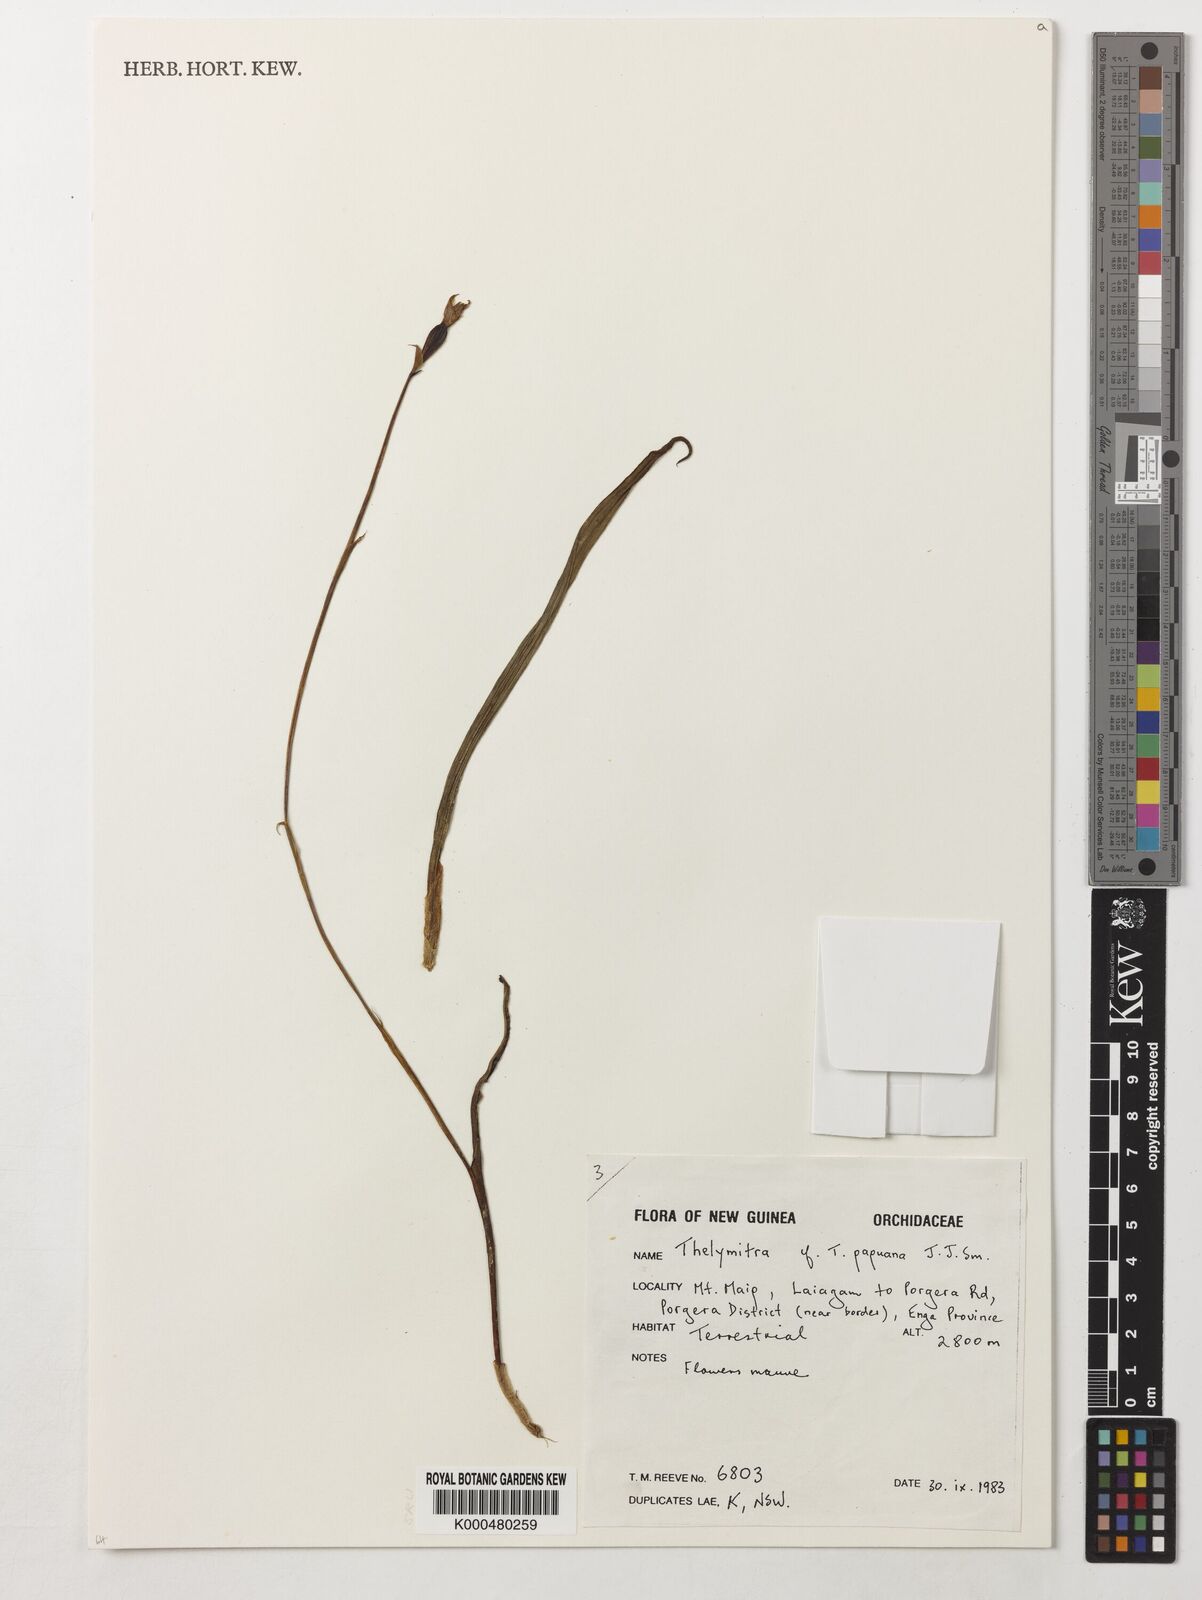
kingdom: Plantae
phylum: Tracheophyta
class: Liliopsida
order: Asparagales
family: Orchidaceae
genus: Thelymitra
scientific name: Thelymitra papuana
